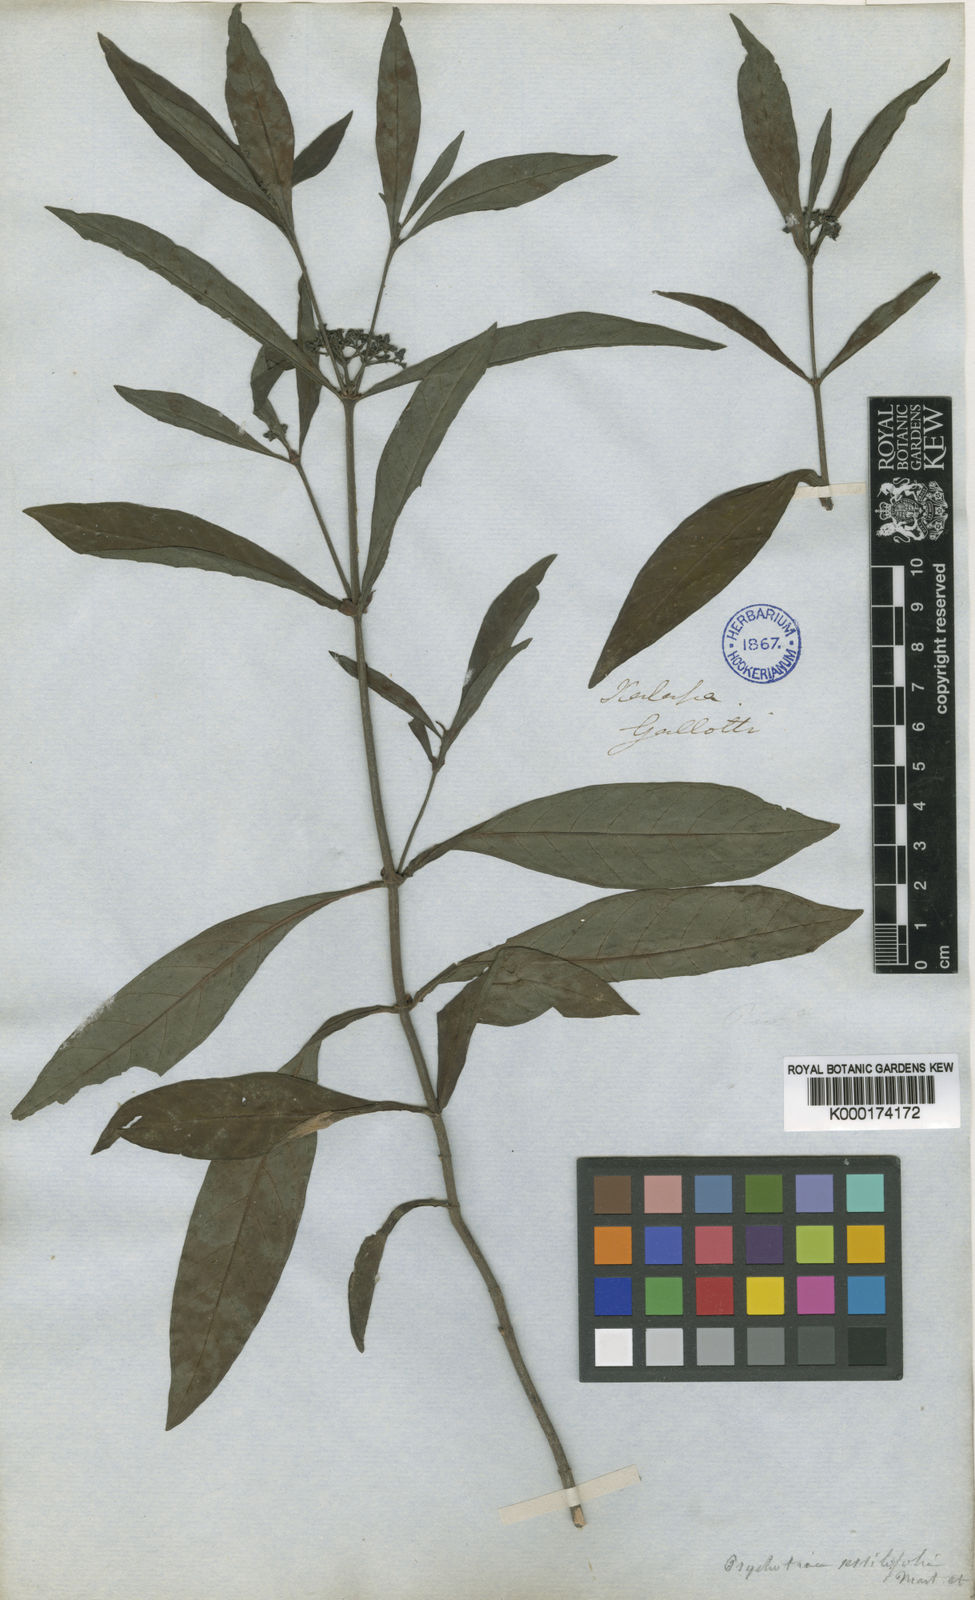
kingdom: Plantae
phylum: Tracheophyta
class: Magnoliopsida
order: Gentianales
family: Rubiaceae
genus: Psychotria
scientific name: Psychotria tenuifolia
